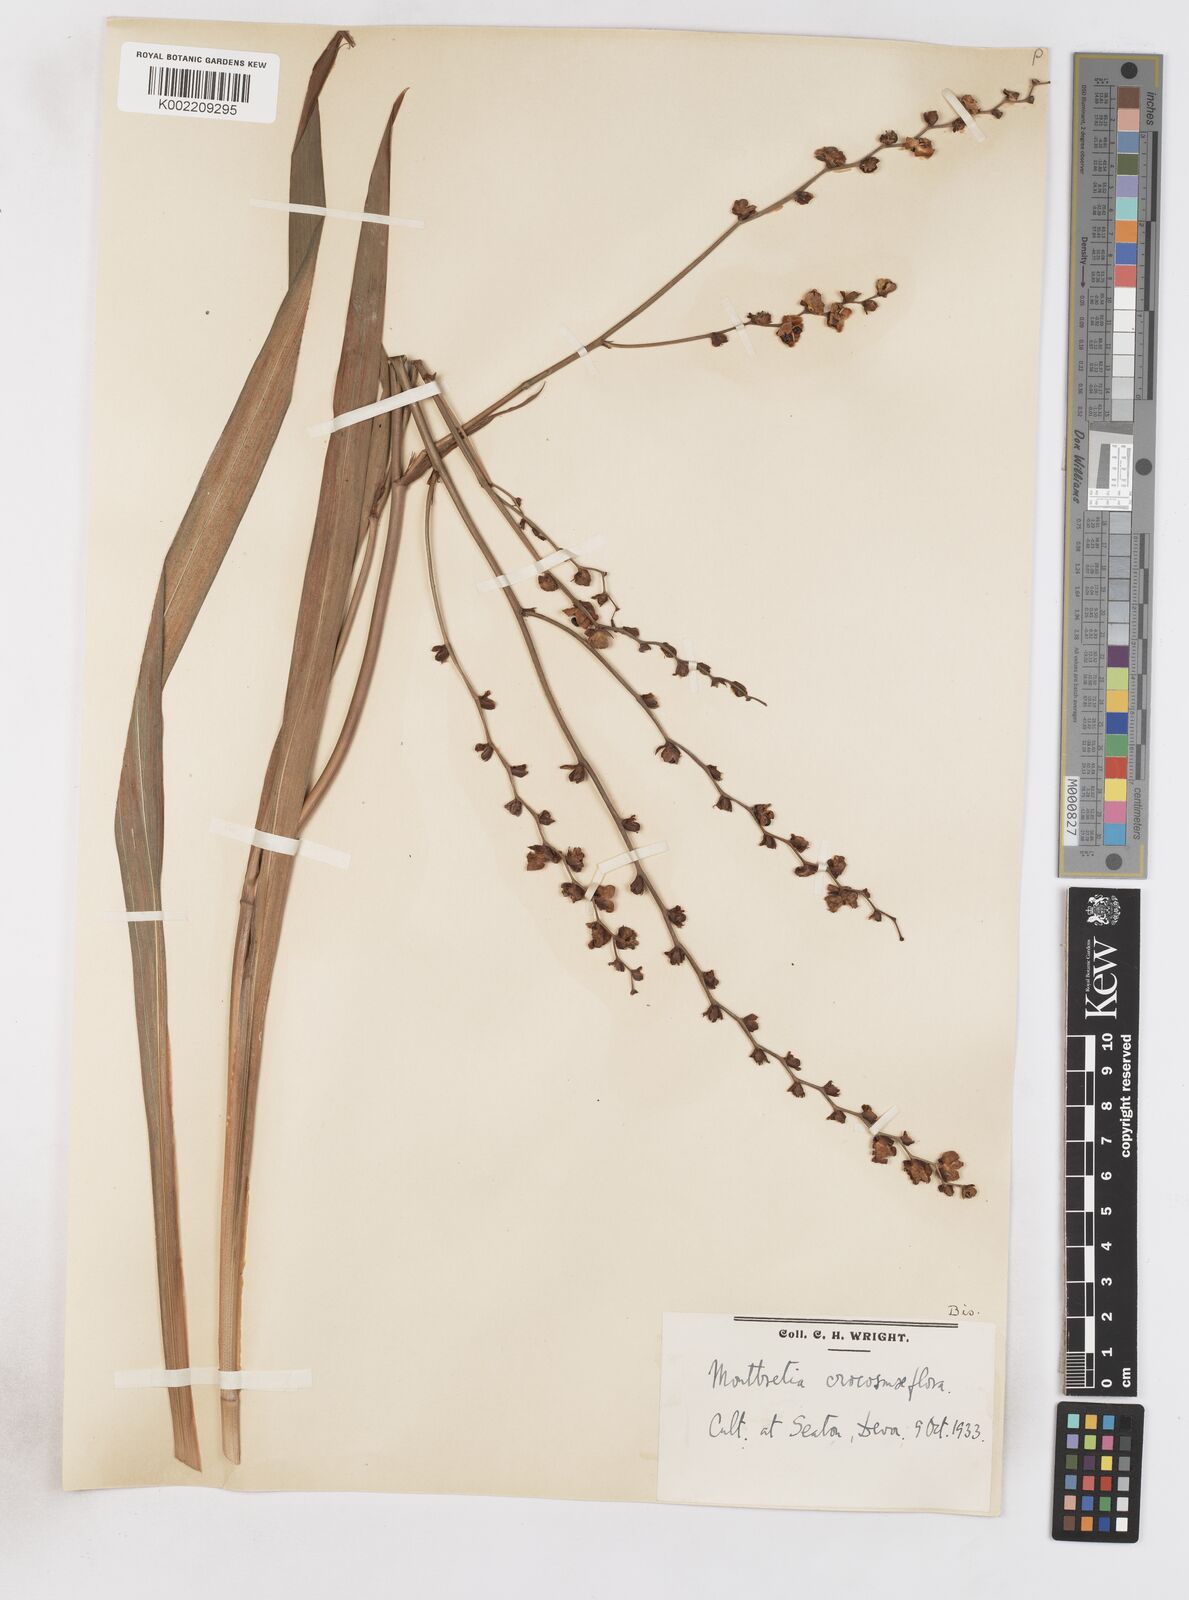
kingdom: Plantae
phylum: Tracheophyta
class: Liliopsida
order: Asparagales
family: Iridaceae
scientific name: Iridaceae
